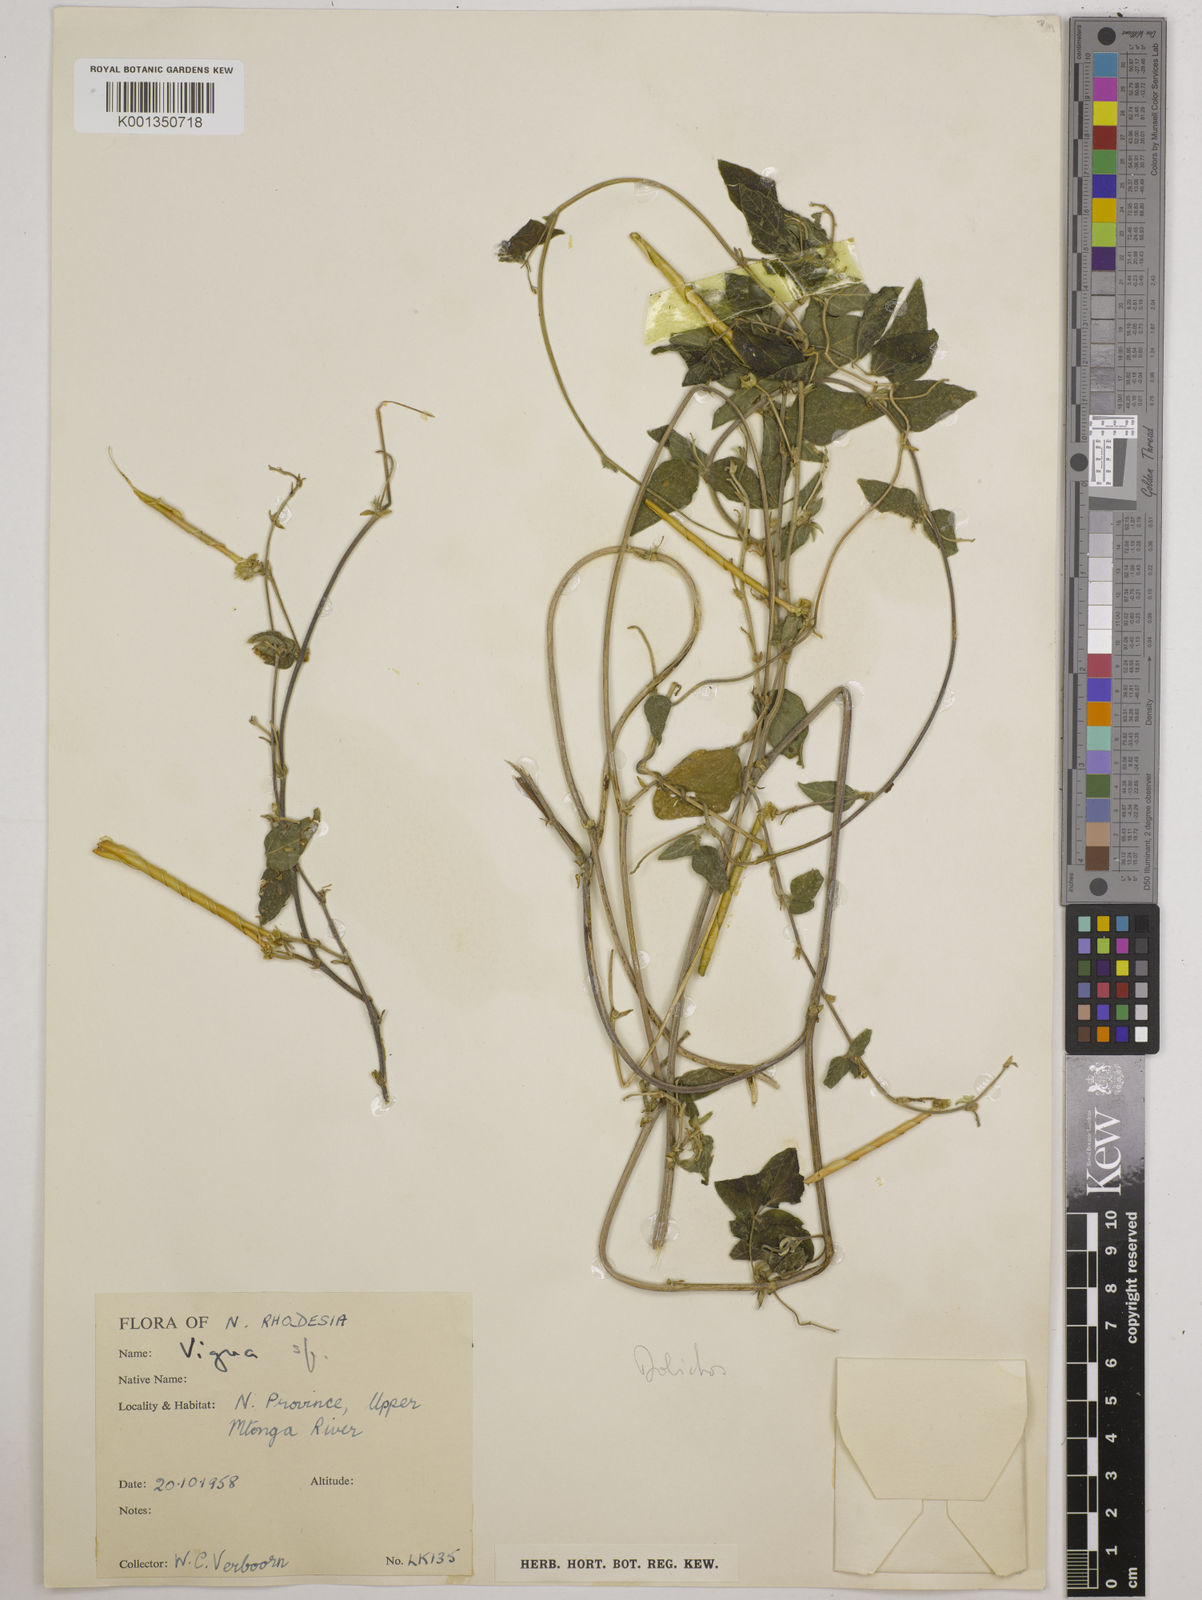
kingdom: Plantae
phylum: Tracheophyta
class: Magnoliopsida
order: Fabales
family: Fabaceae
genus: Dolichos
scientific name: Dolichos
